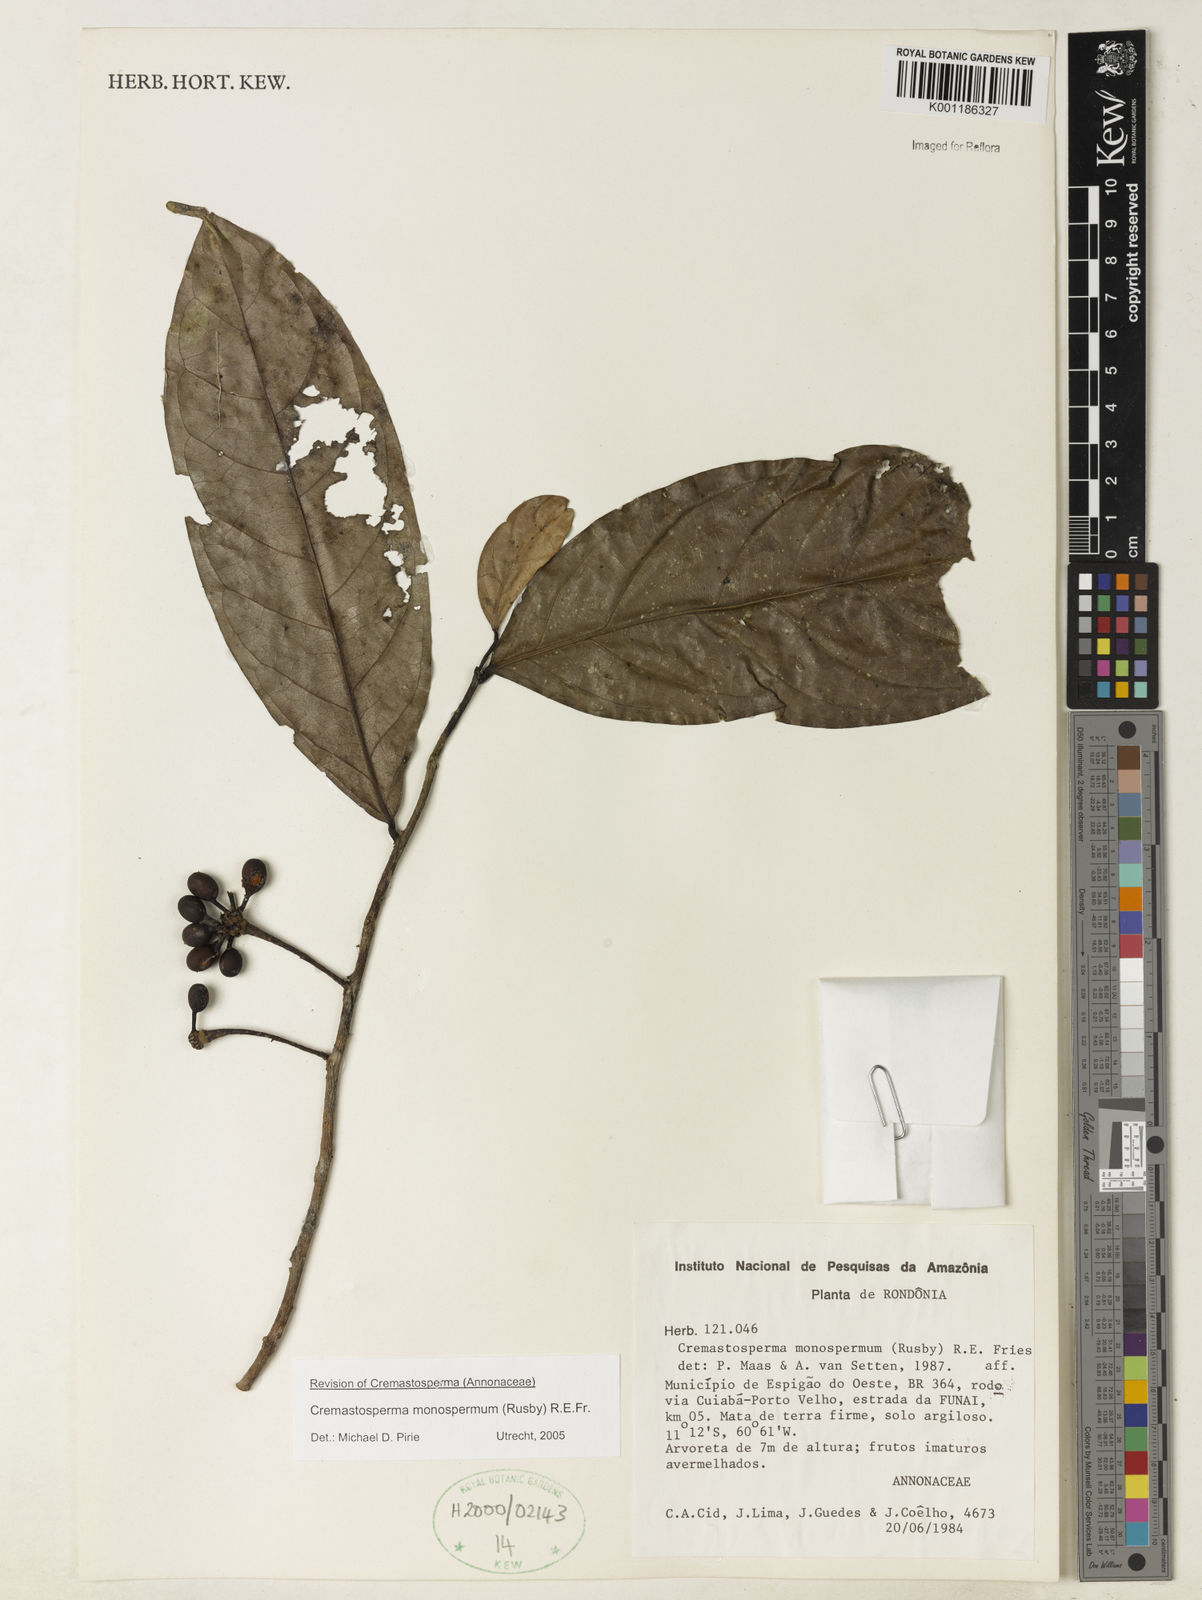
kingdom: Plantae
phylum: Tracheophyta
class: Magnoliopsida
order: Magnoliales
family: Annonaceae
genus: Cremastosperma
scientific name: Cremastosperma monospermum
